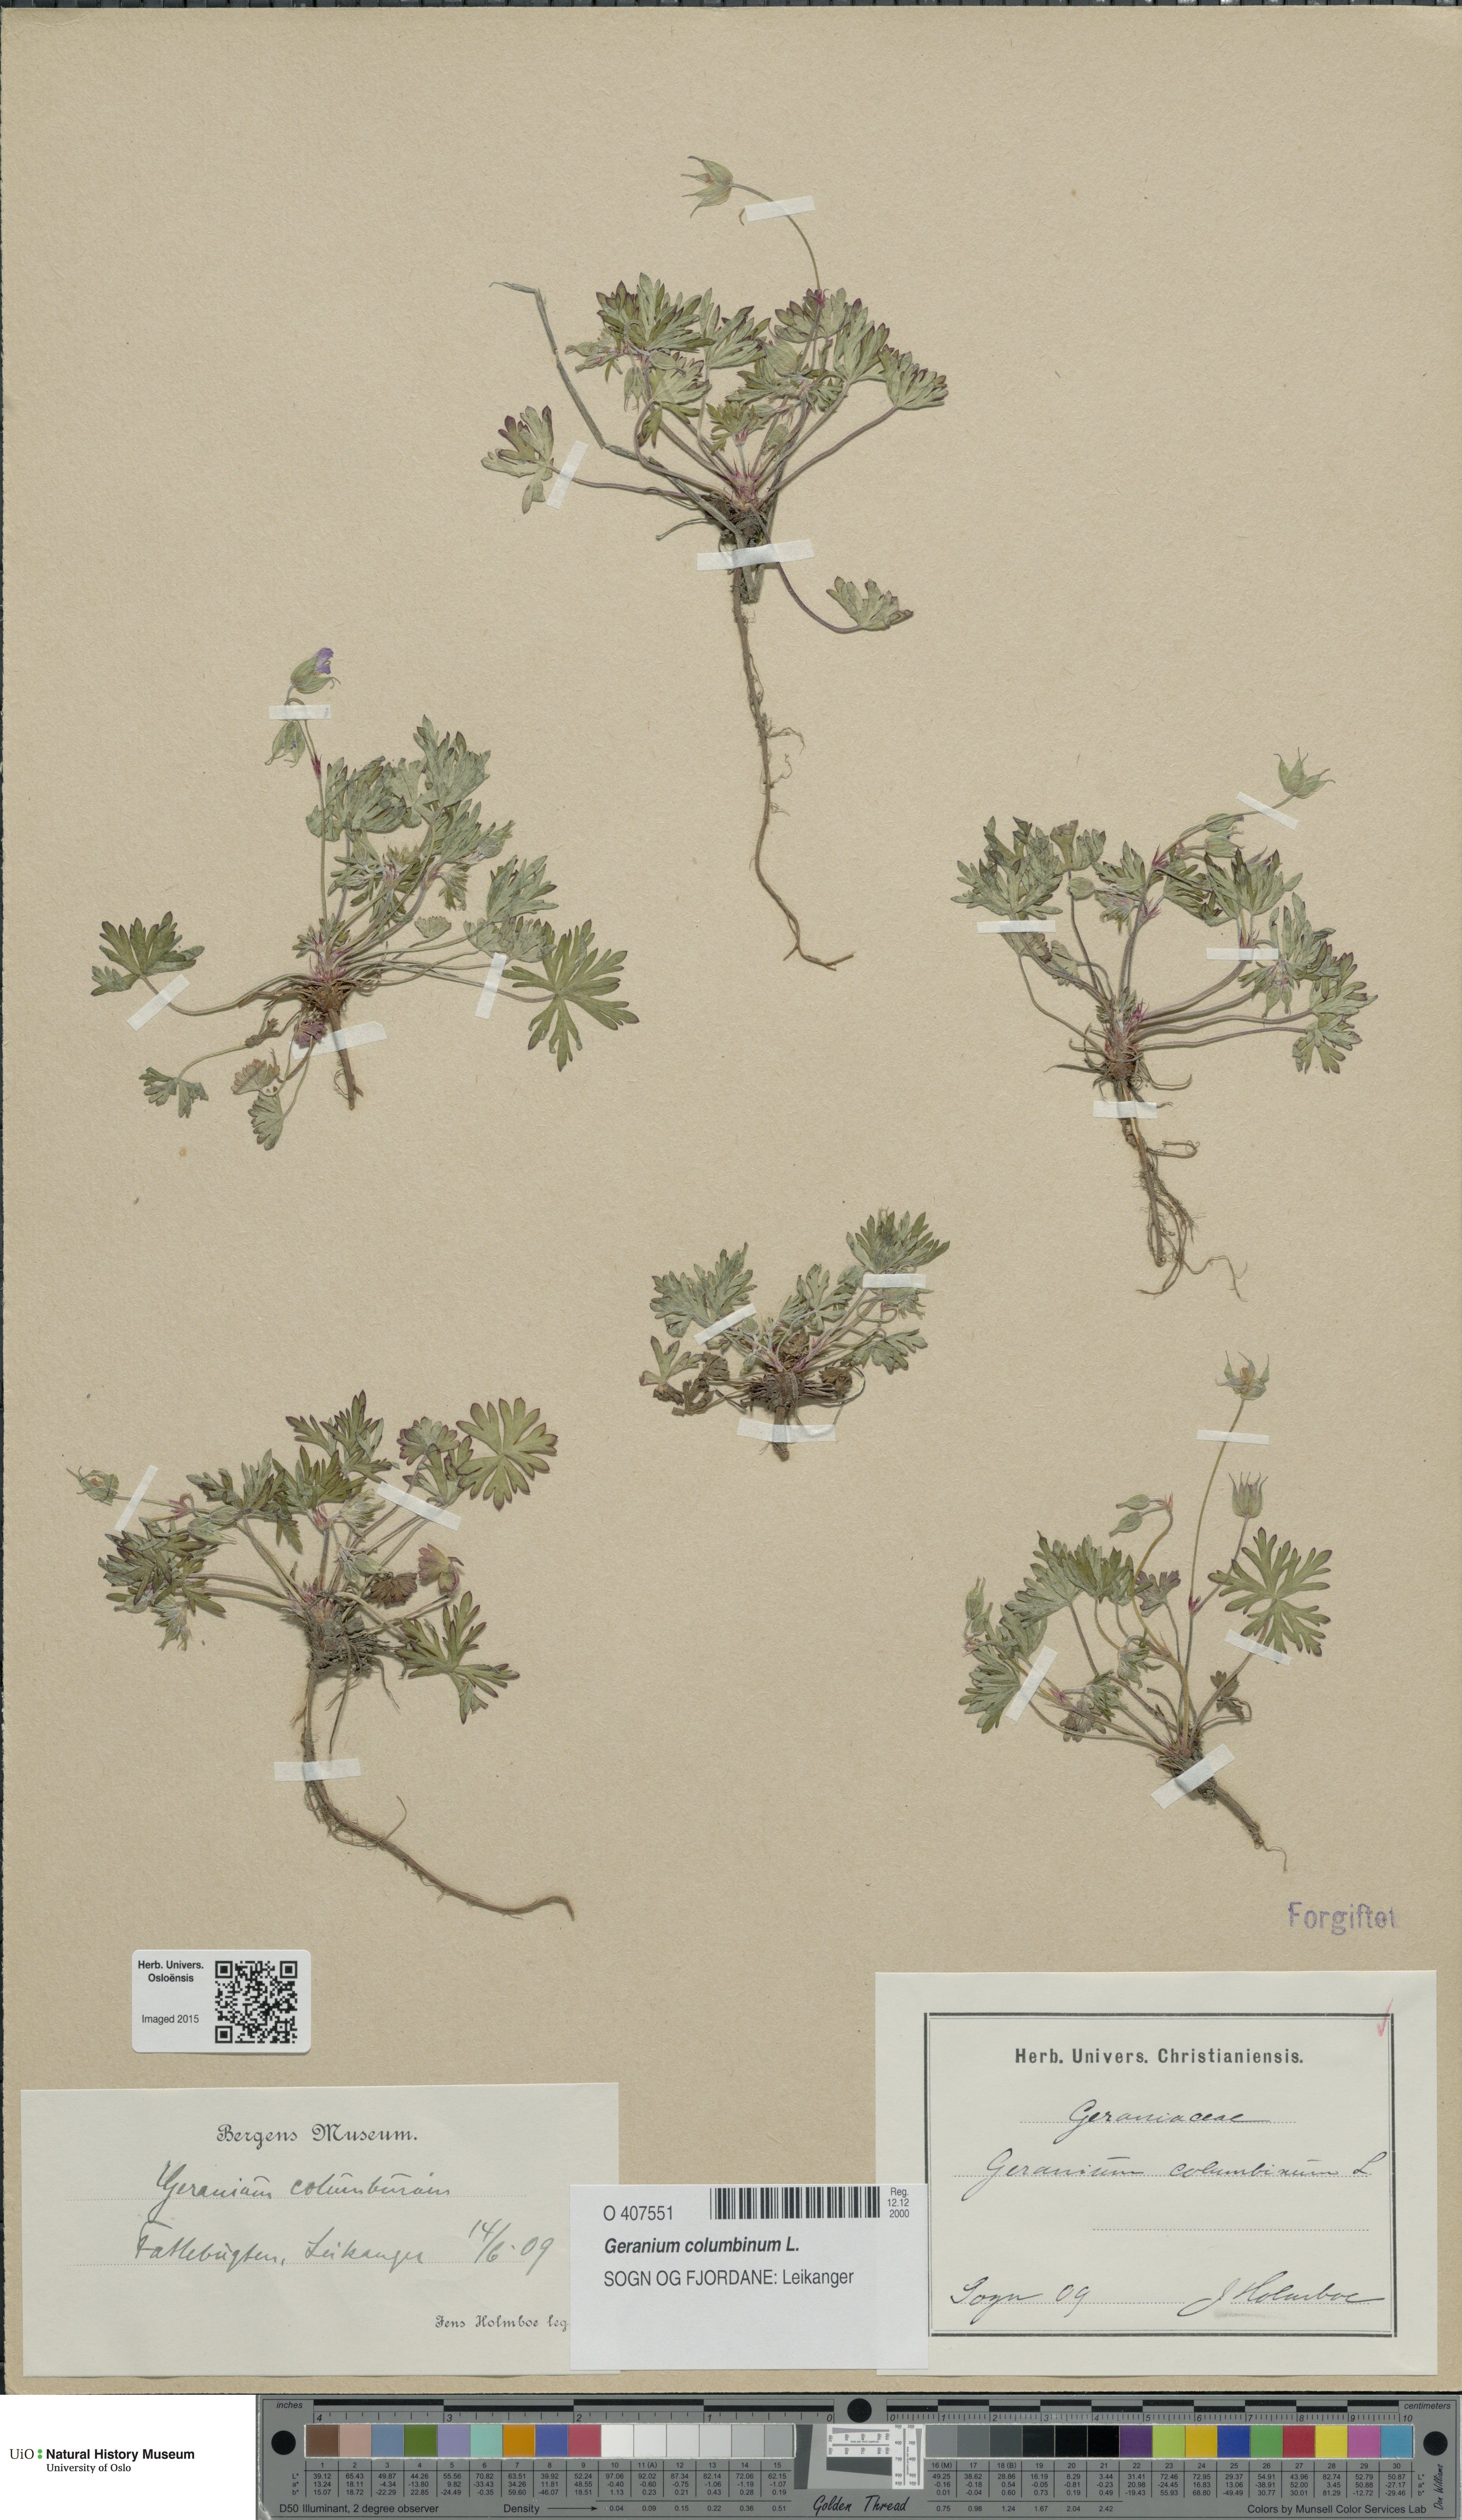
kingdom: Plantae
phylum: Tracheophyta
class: Magnoliopsida
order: Geraniales
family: Geraniaceae
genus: Geranium
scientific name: Geranium columbinum
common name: Long-stalked crane's-bill
